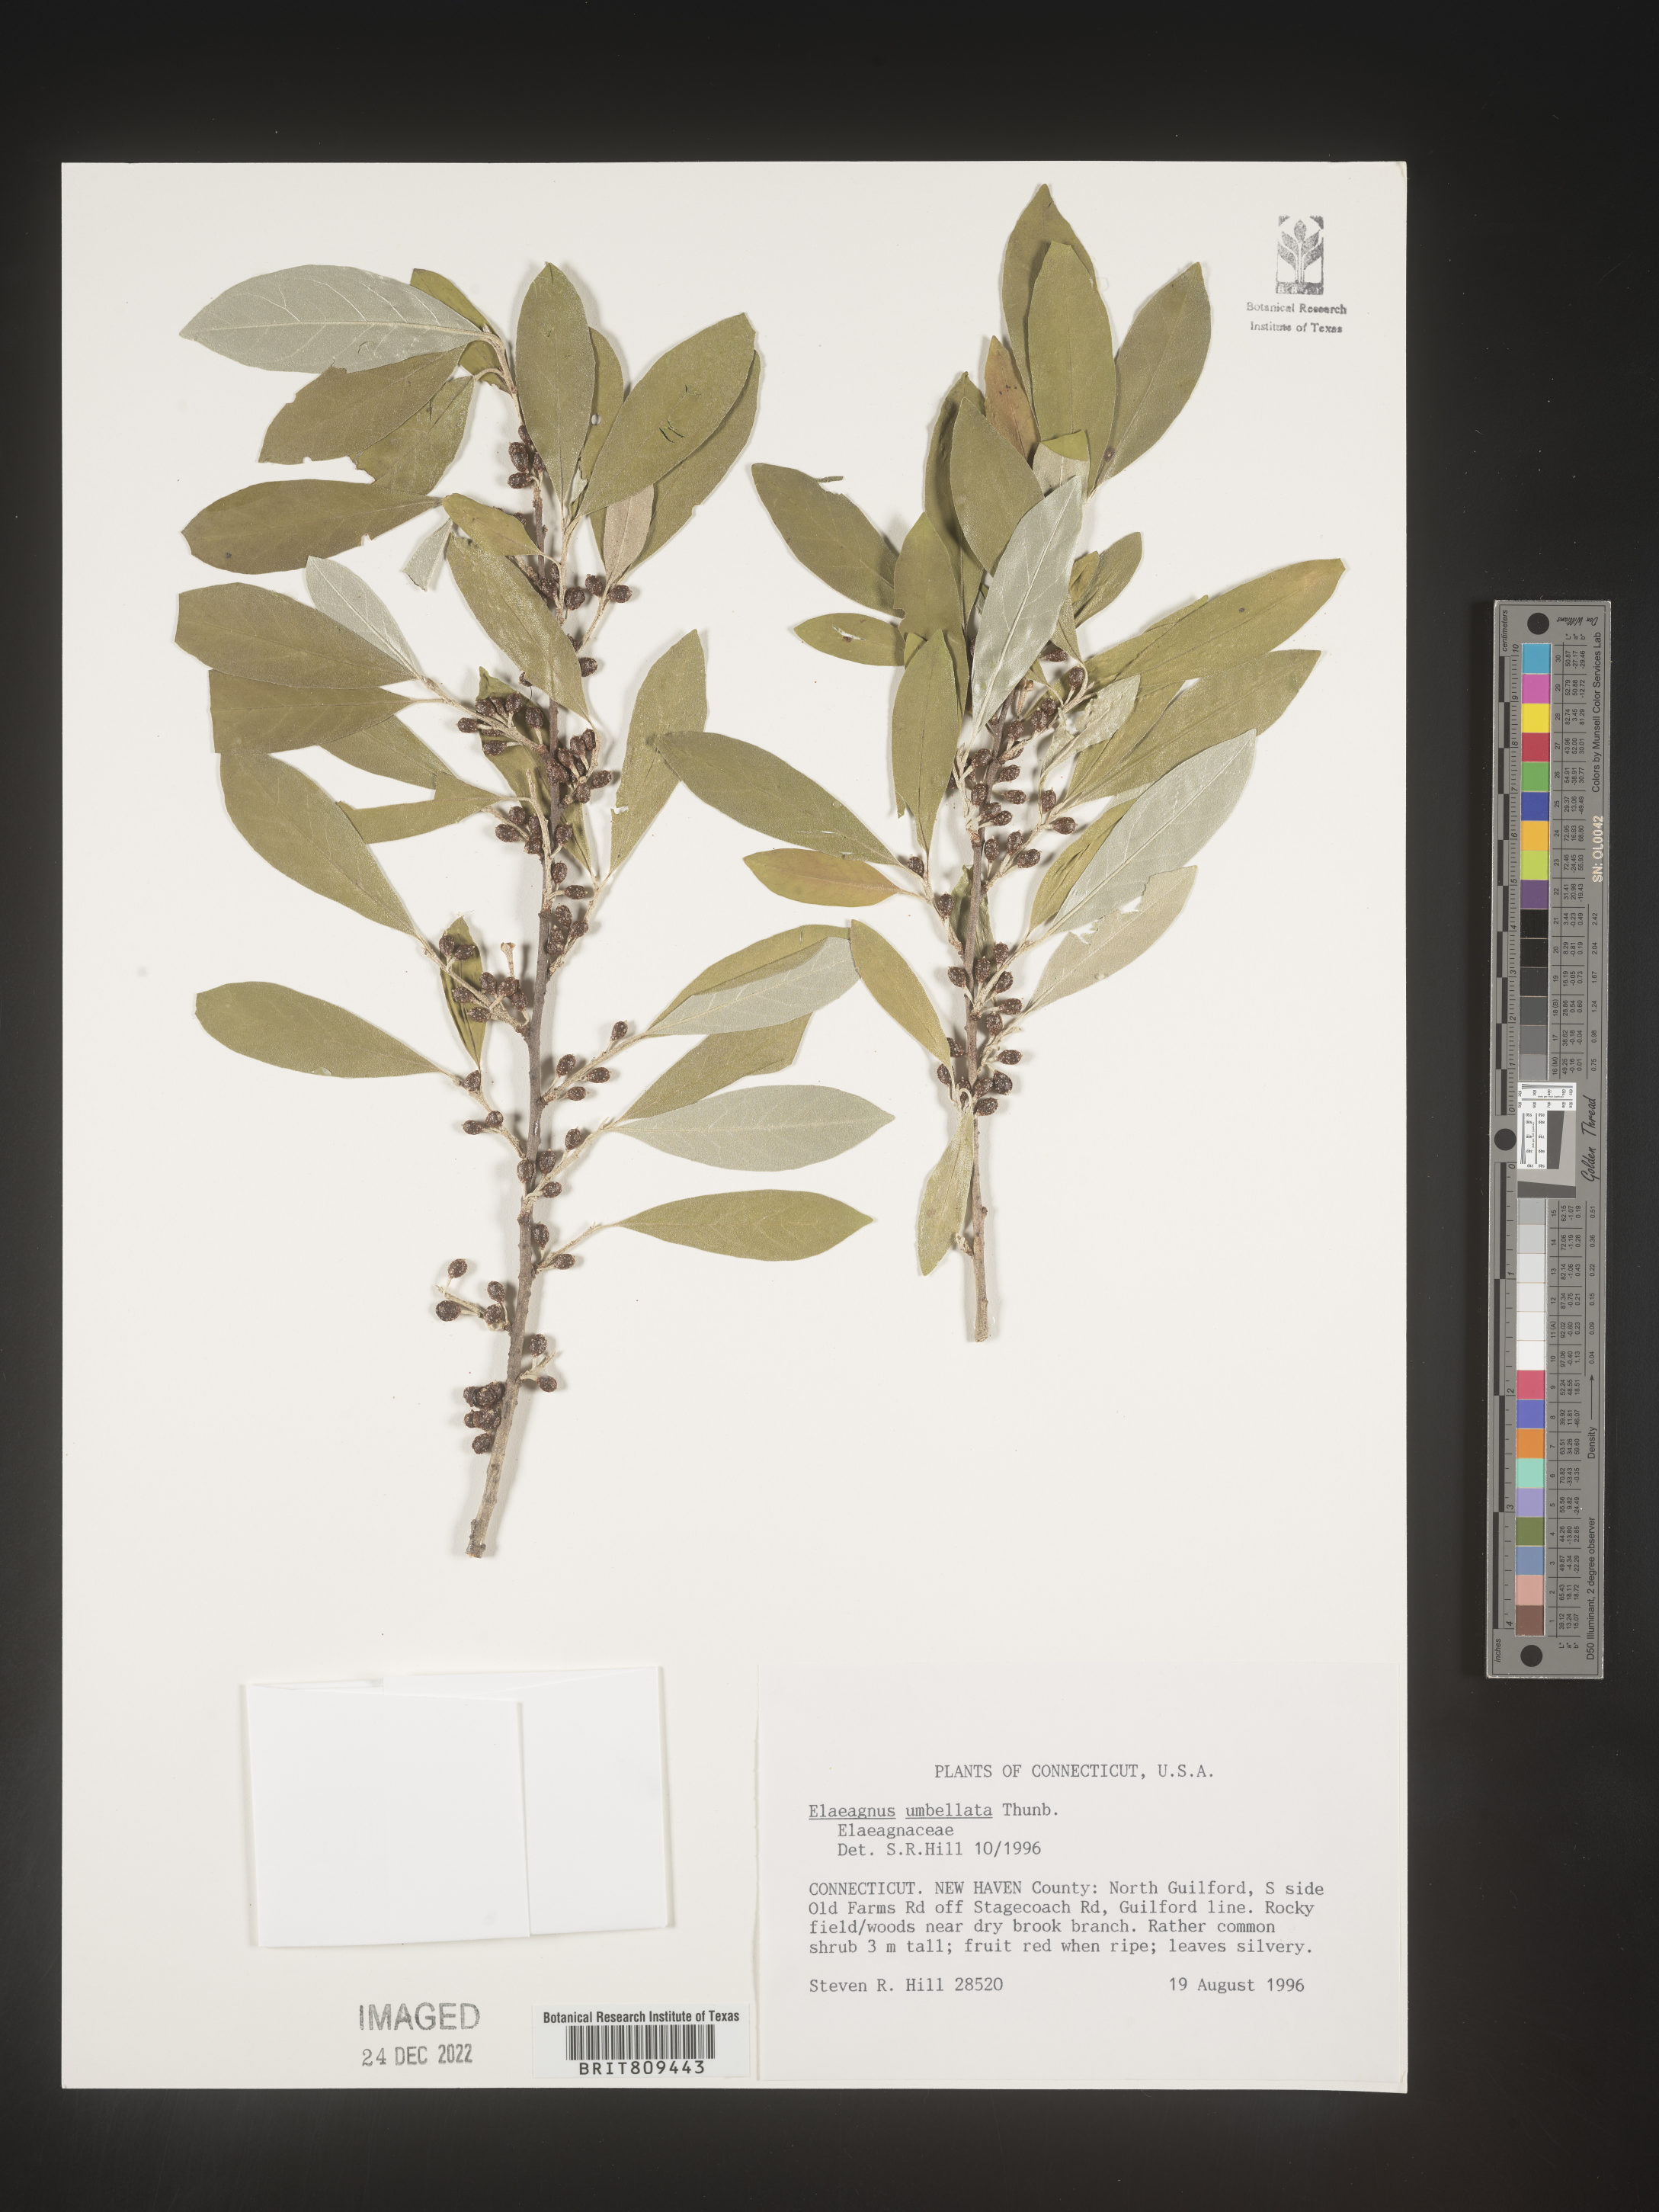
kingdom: Plantae
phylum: Tracheophyta
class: Magnoliopsida
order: Rosales
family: Elaeagnaceae
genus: Elaeagnus
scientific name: Elaeagnus
